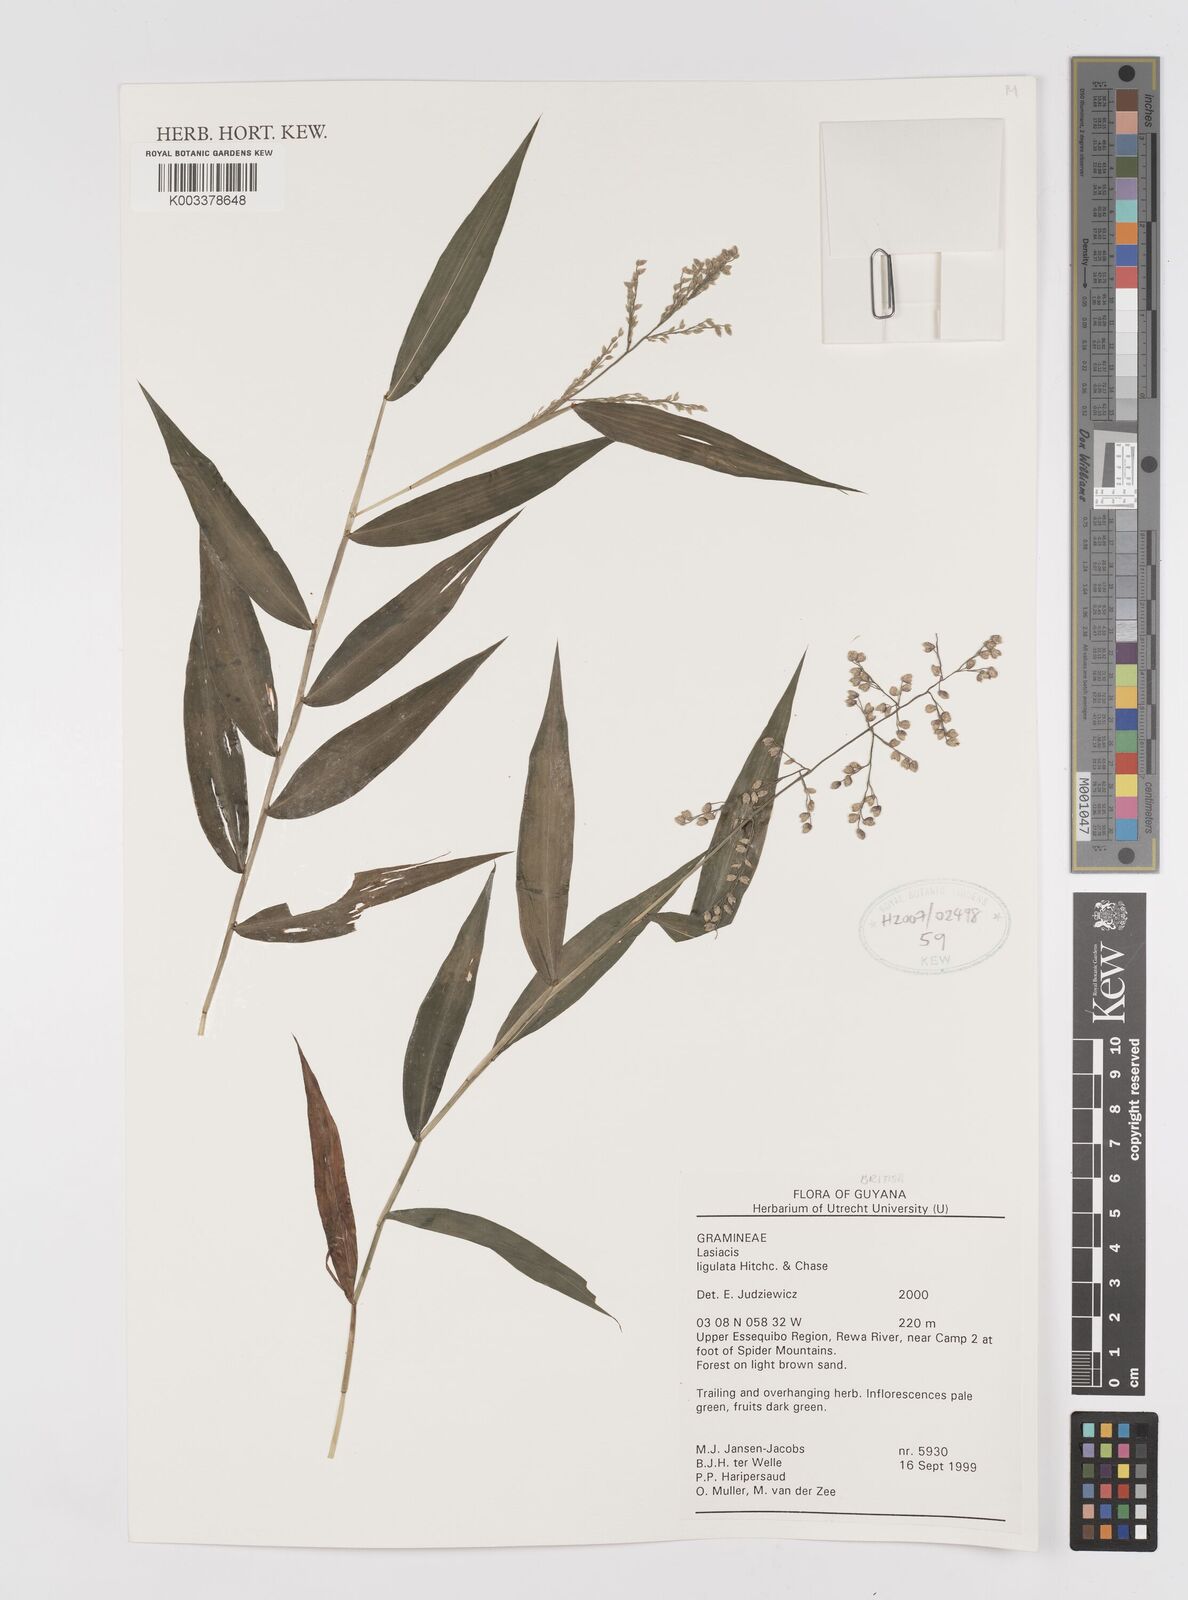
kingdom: Plantae
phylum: Tracheophyta
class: Liliopsida
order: Poales
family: Poaceae
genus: Lasiacis
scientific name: Lasiacis ligulata
